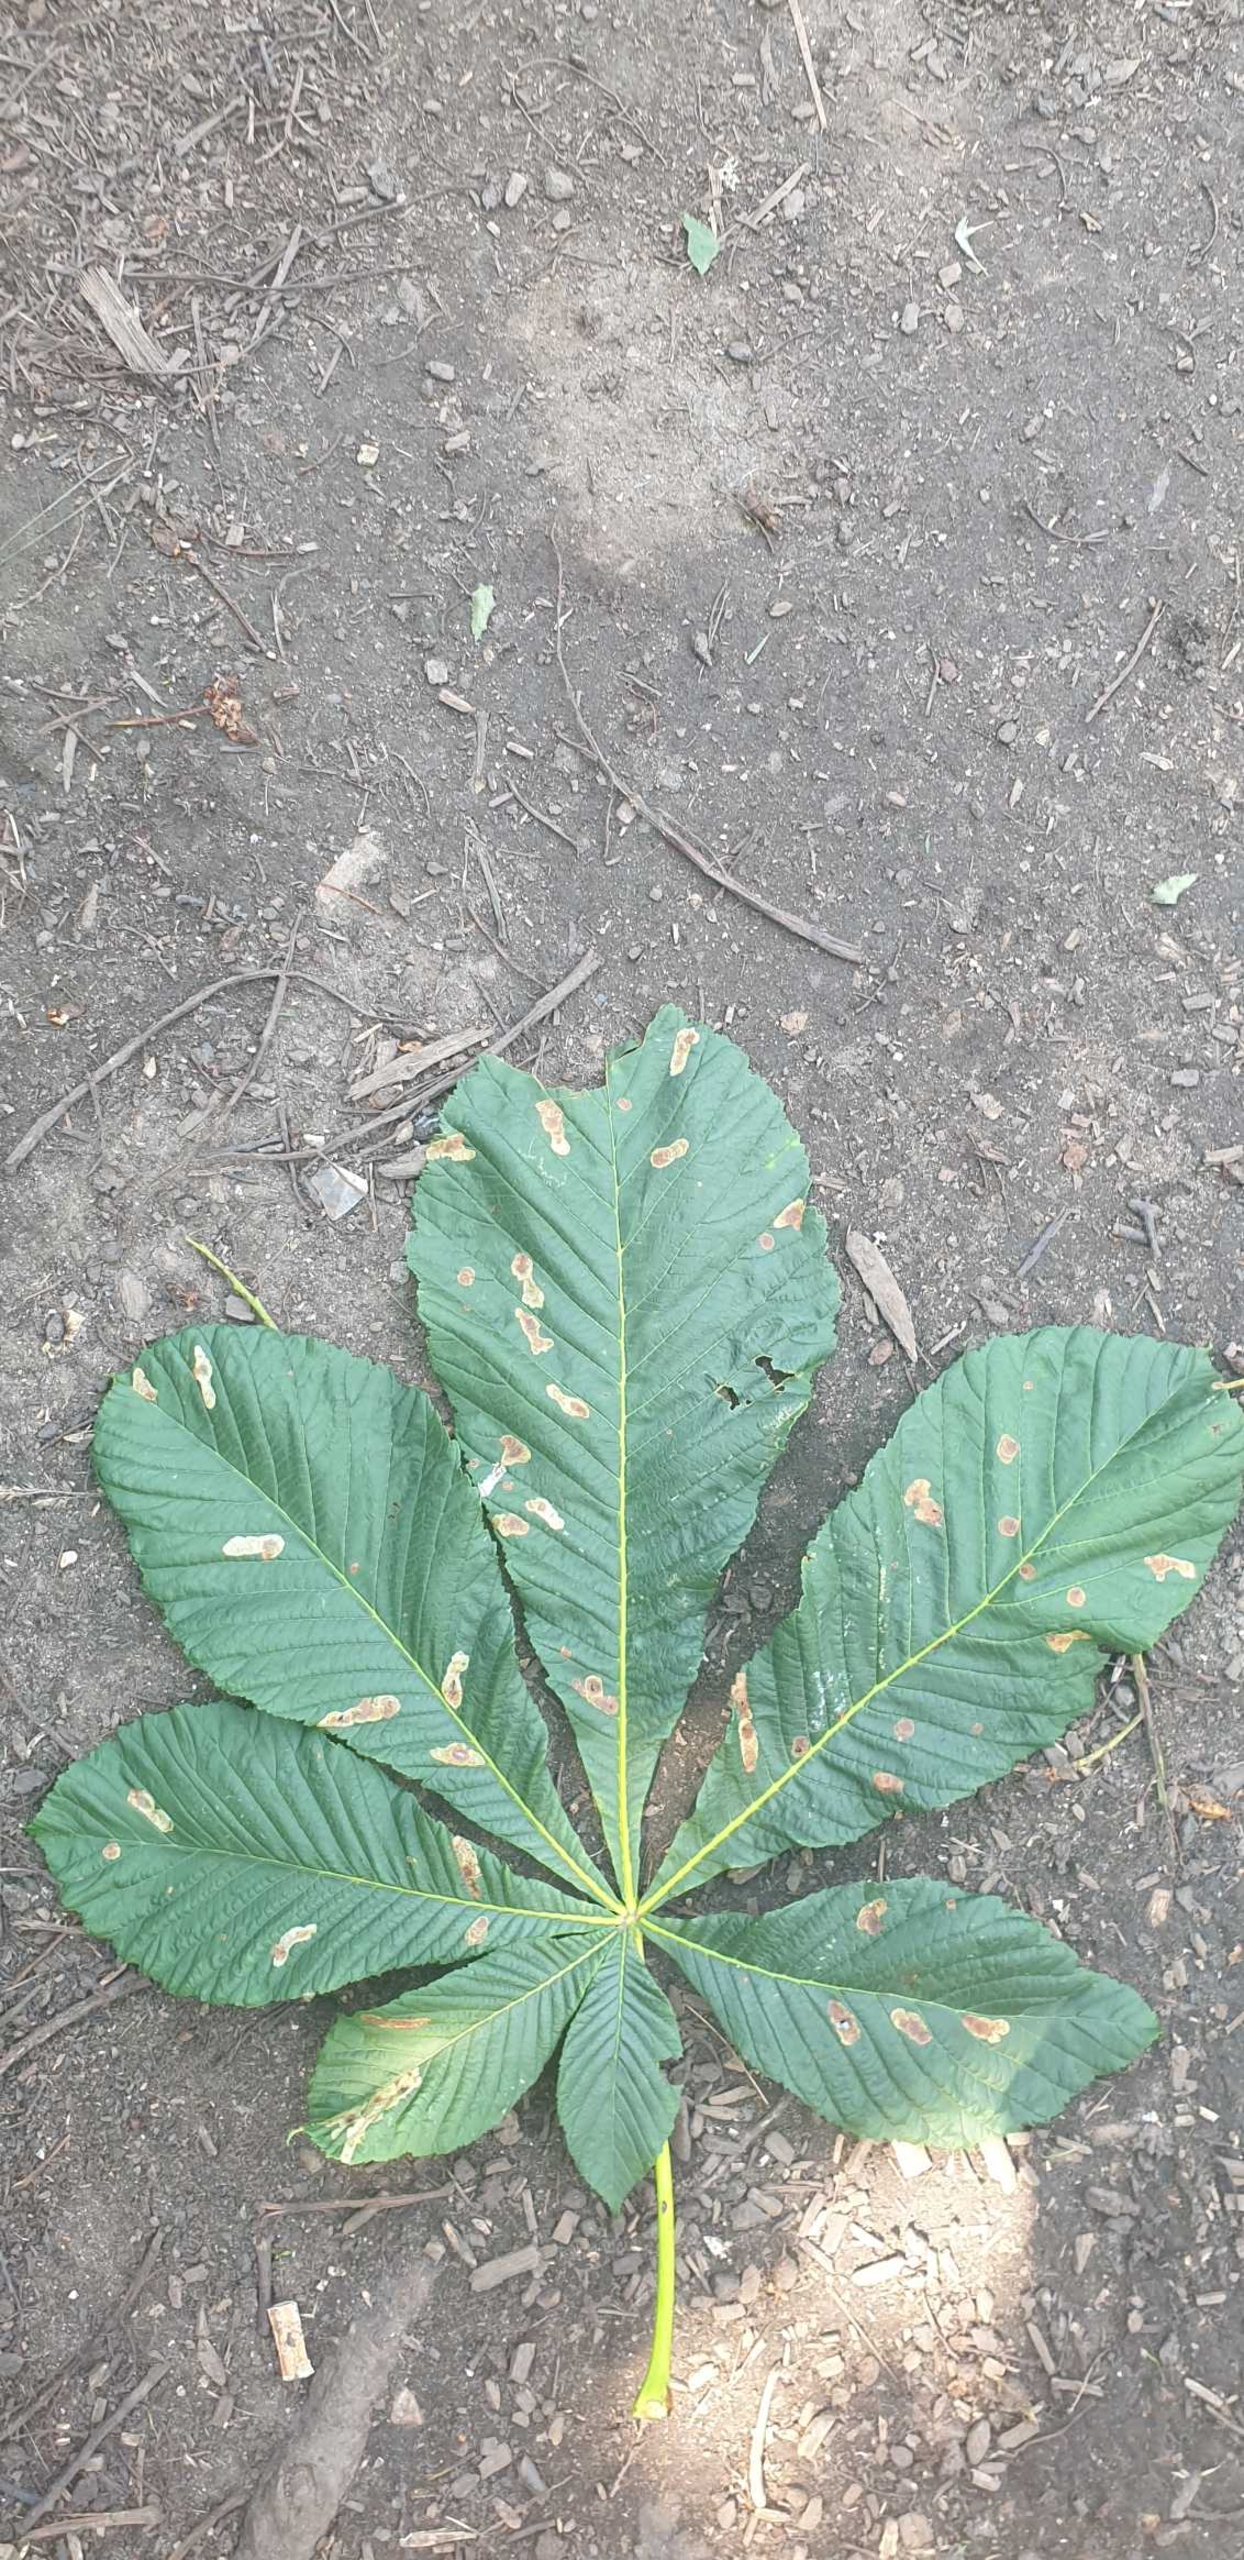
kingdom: Plantae
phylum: Tracheophyta
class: Magnoliopsida
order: Sapindales
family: Sapindaceae
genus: Aesculus
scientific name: Aesculus hippocastanum
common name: Hestekastanie
